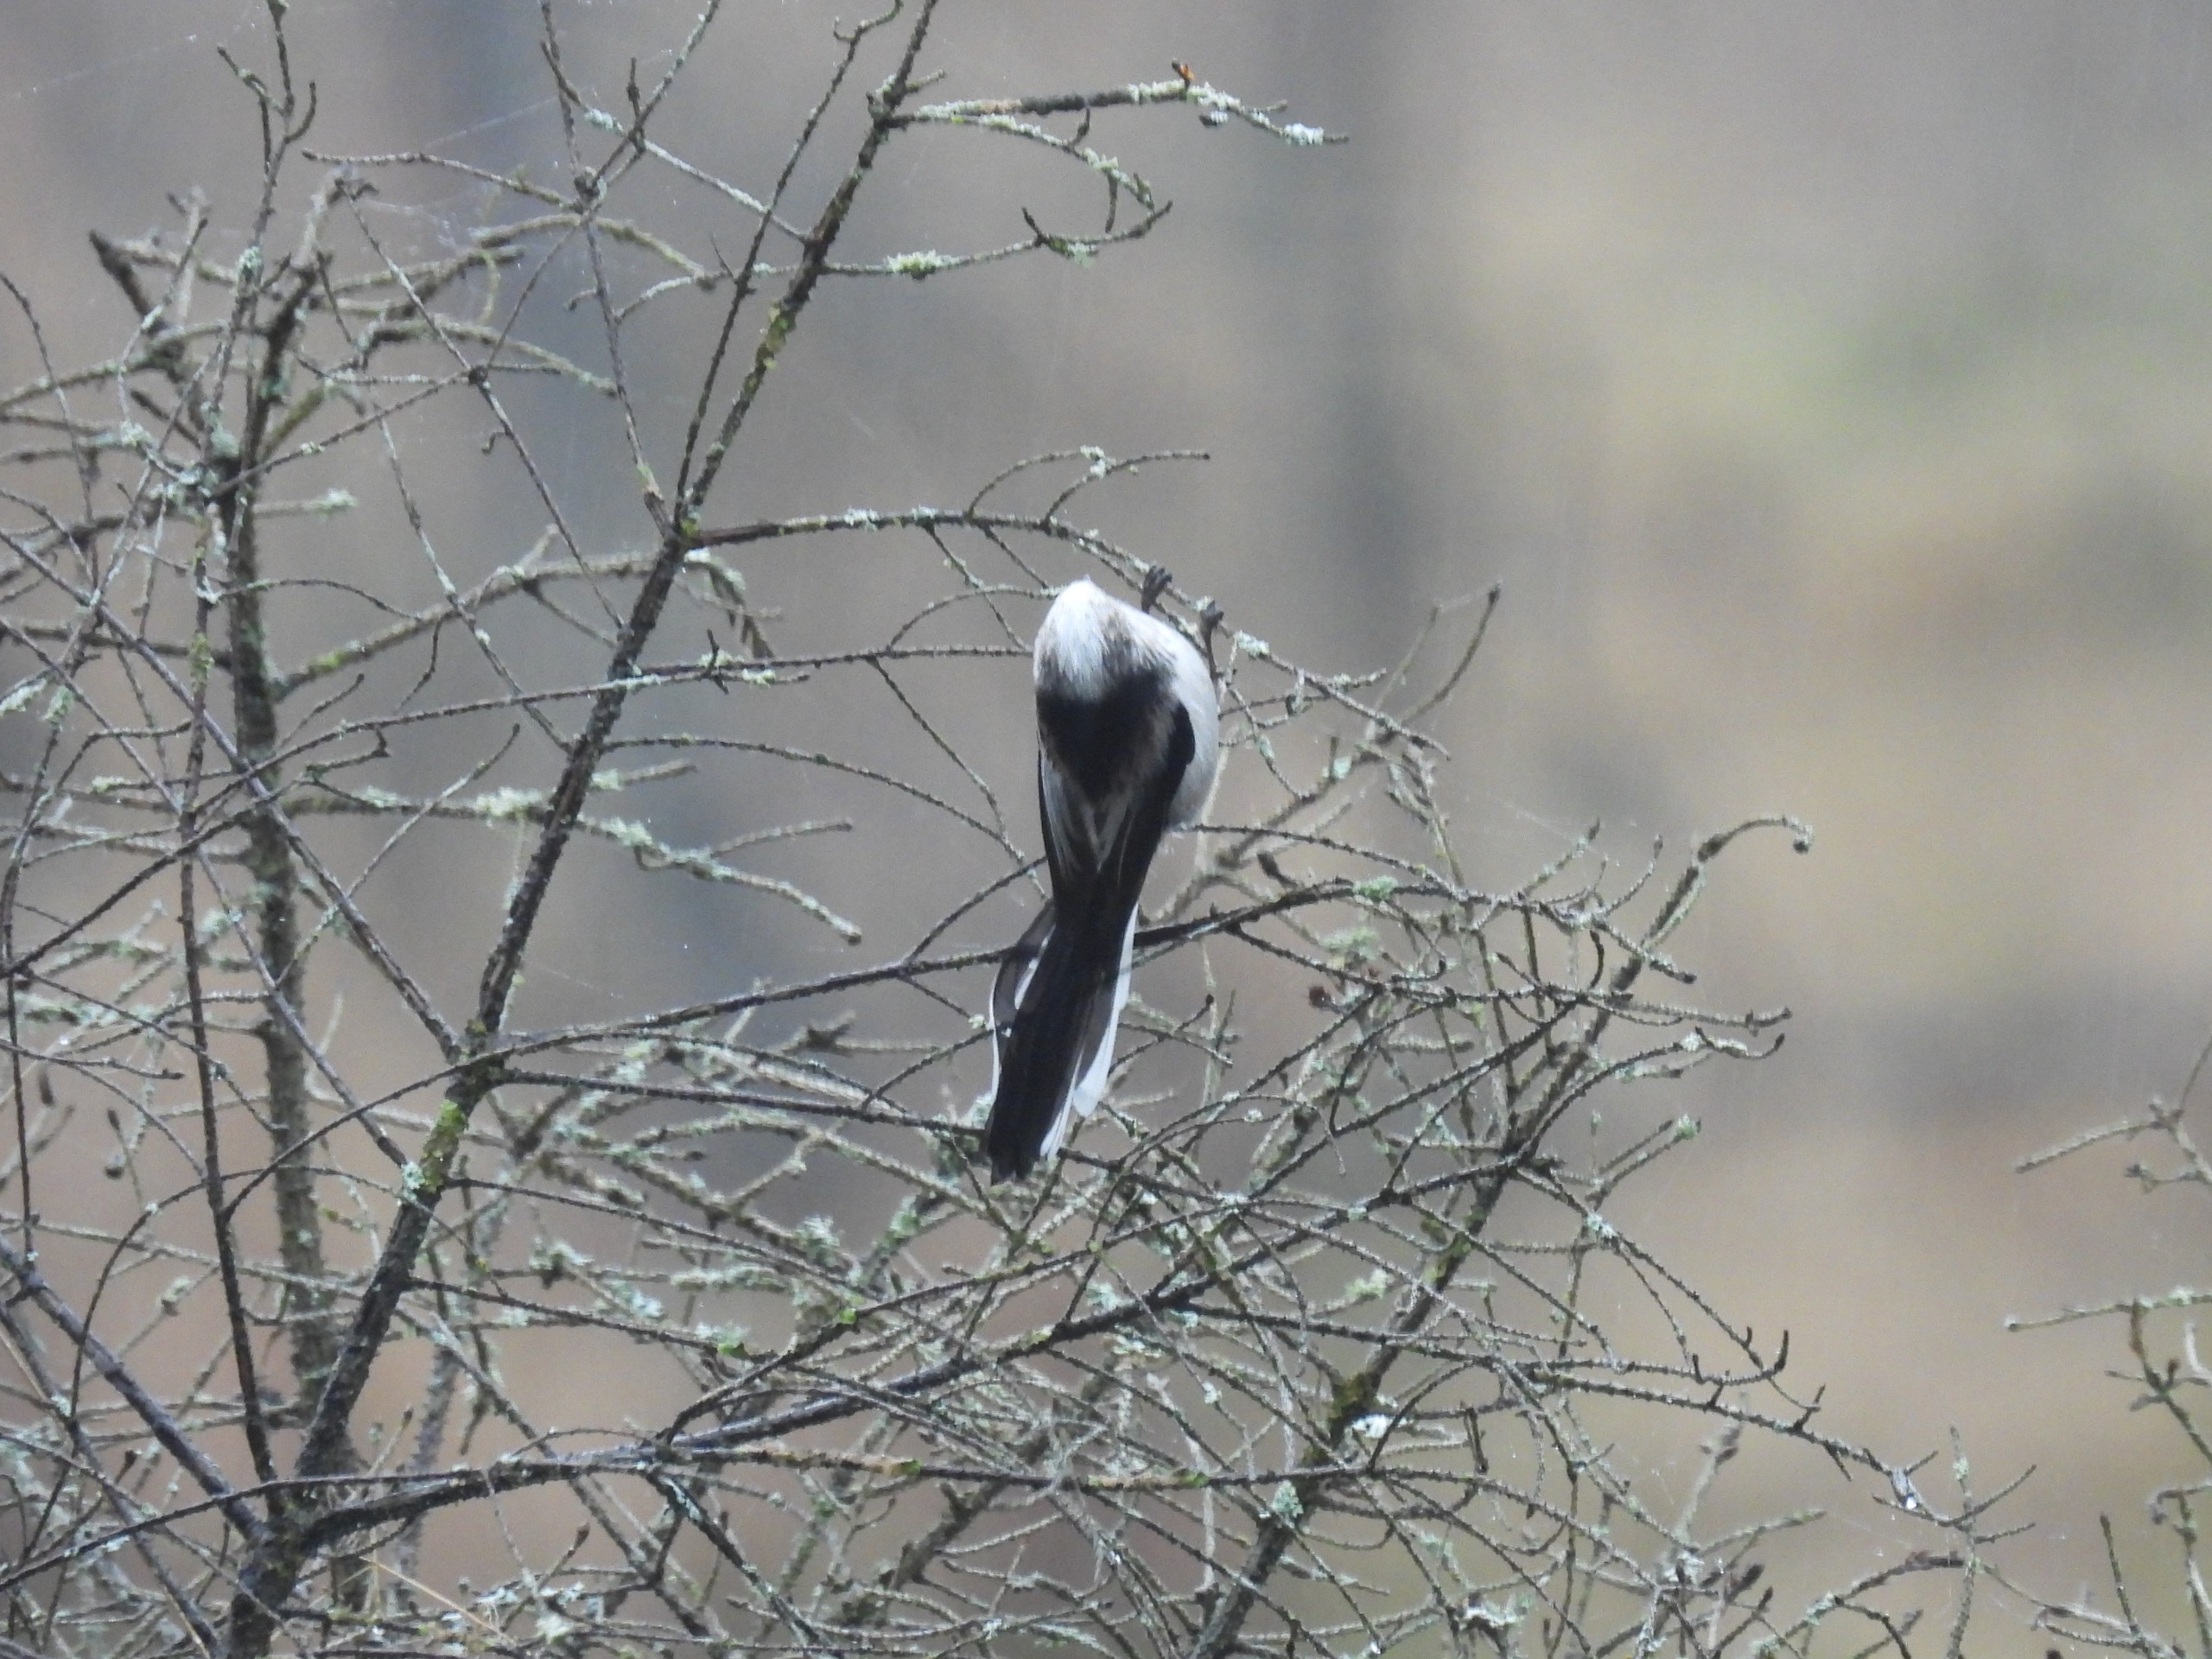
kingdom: Animalia
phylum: Chordata
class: Aves
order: Passeriformes
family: Aegithalidae
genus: Aegithalos
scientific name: Aegithalos caudatus
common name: Nordlig halemejse
